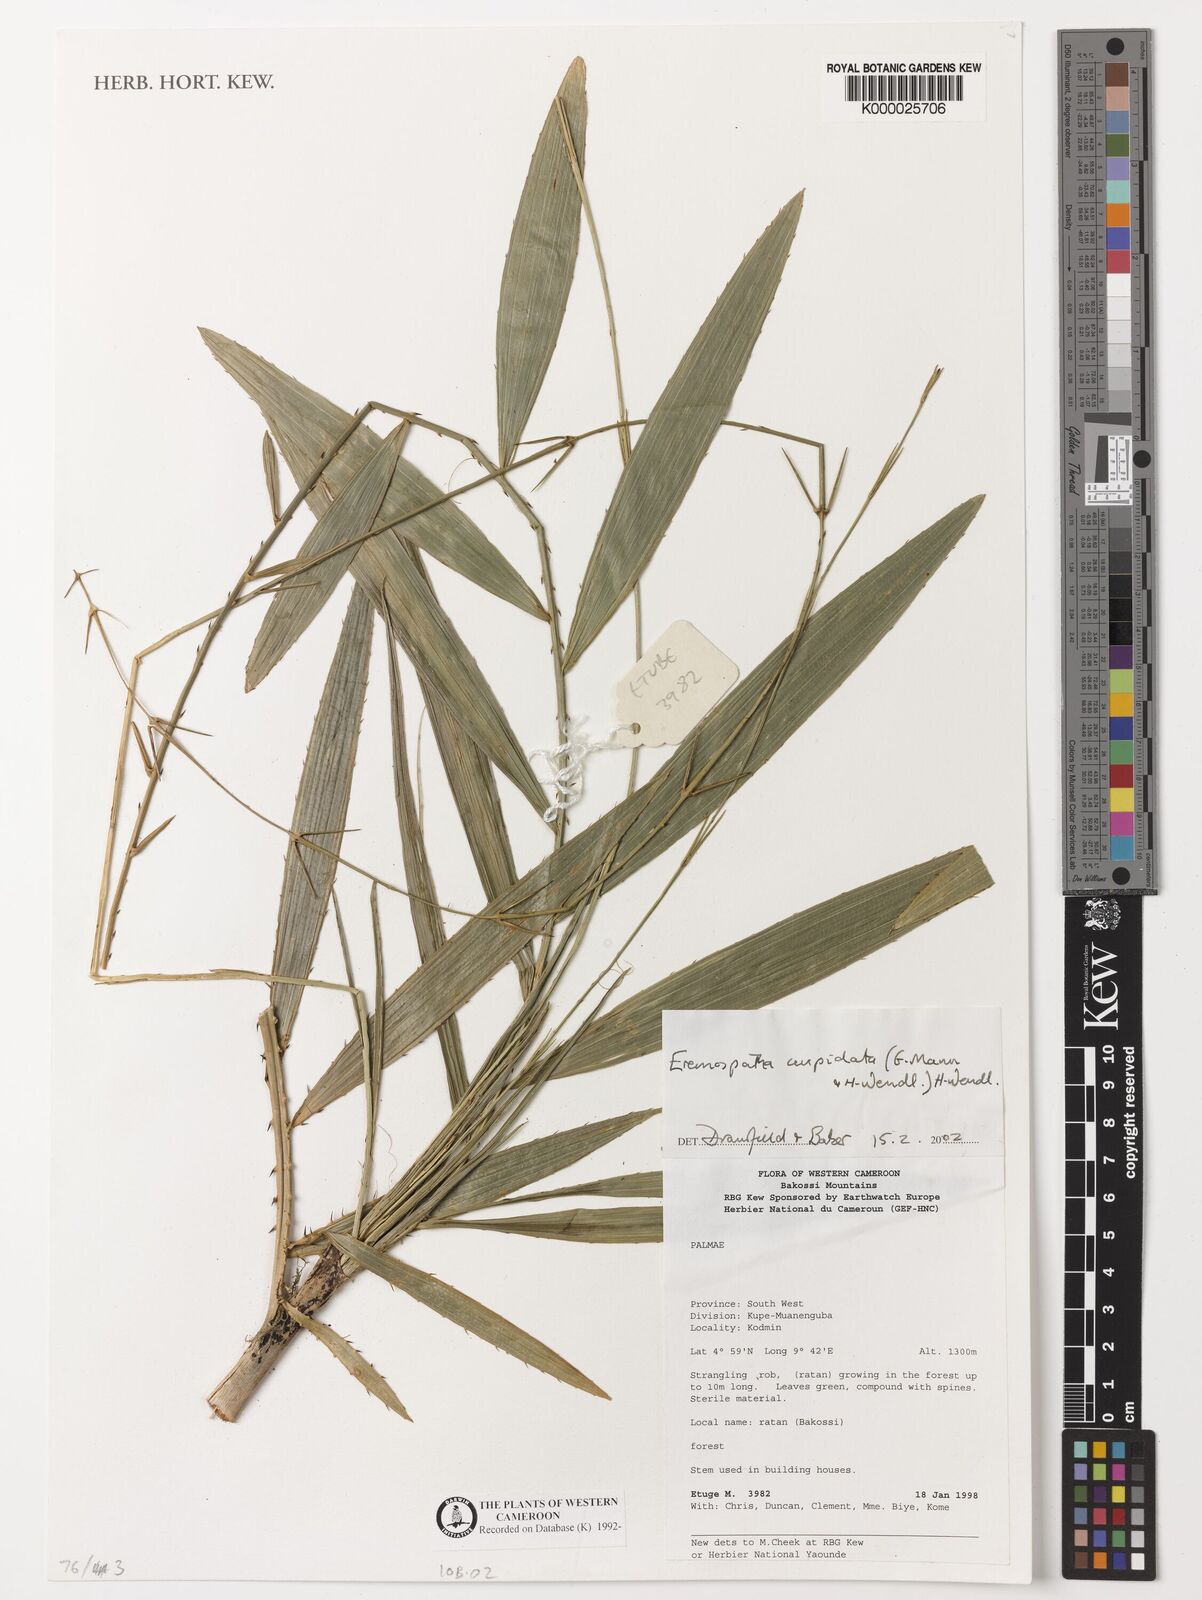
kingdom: Plantae
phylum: Tracheophyta
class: Liliopsida
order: Arecales
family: Arecaceae
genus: Eremospatha
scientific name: Eremospatha cuspidata
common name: Rattan
